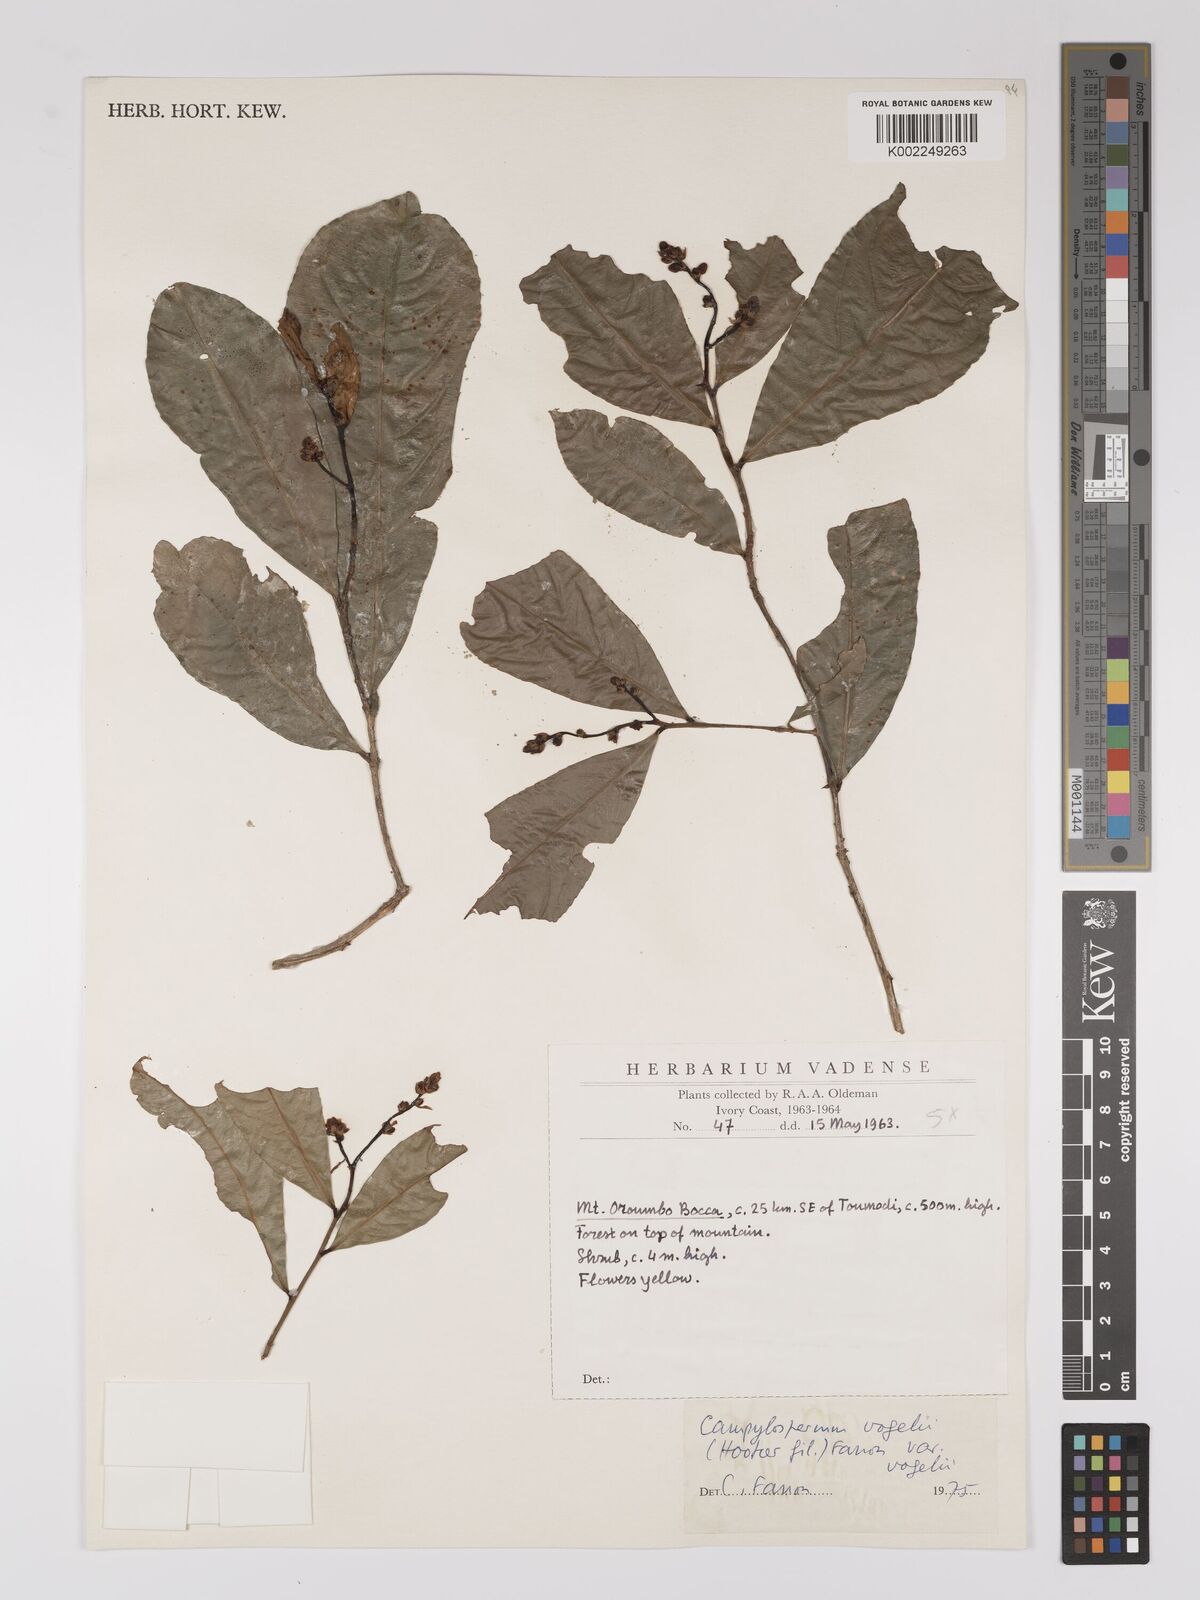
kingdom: Plantae
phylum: Tracheophyta
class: Magnoliopsida
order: Malpighiales
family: Ochnaceae
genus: Campylospermum
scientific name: Campylospermum vogelii
